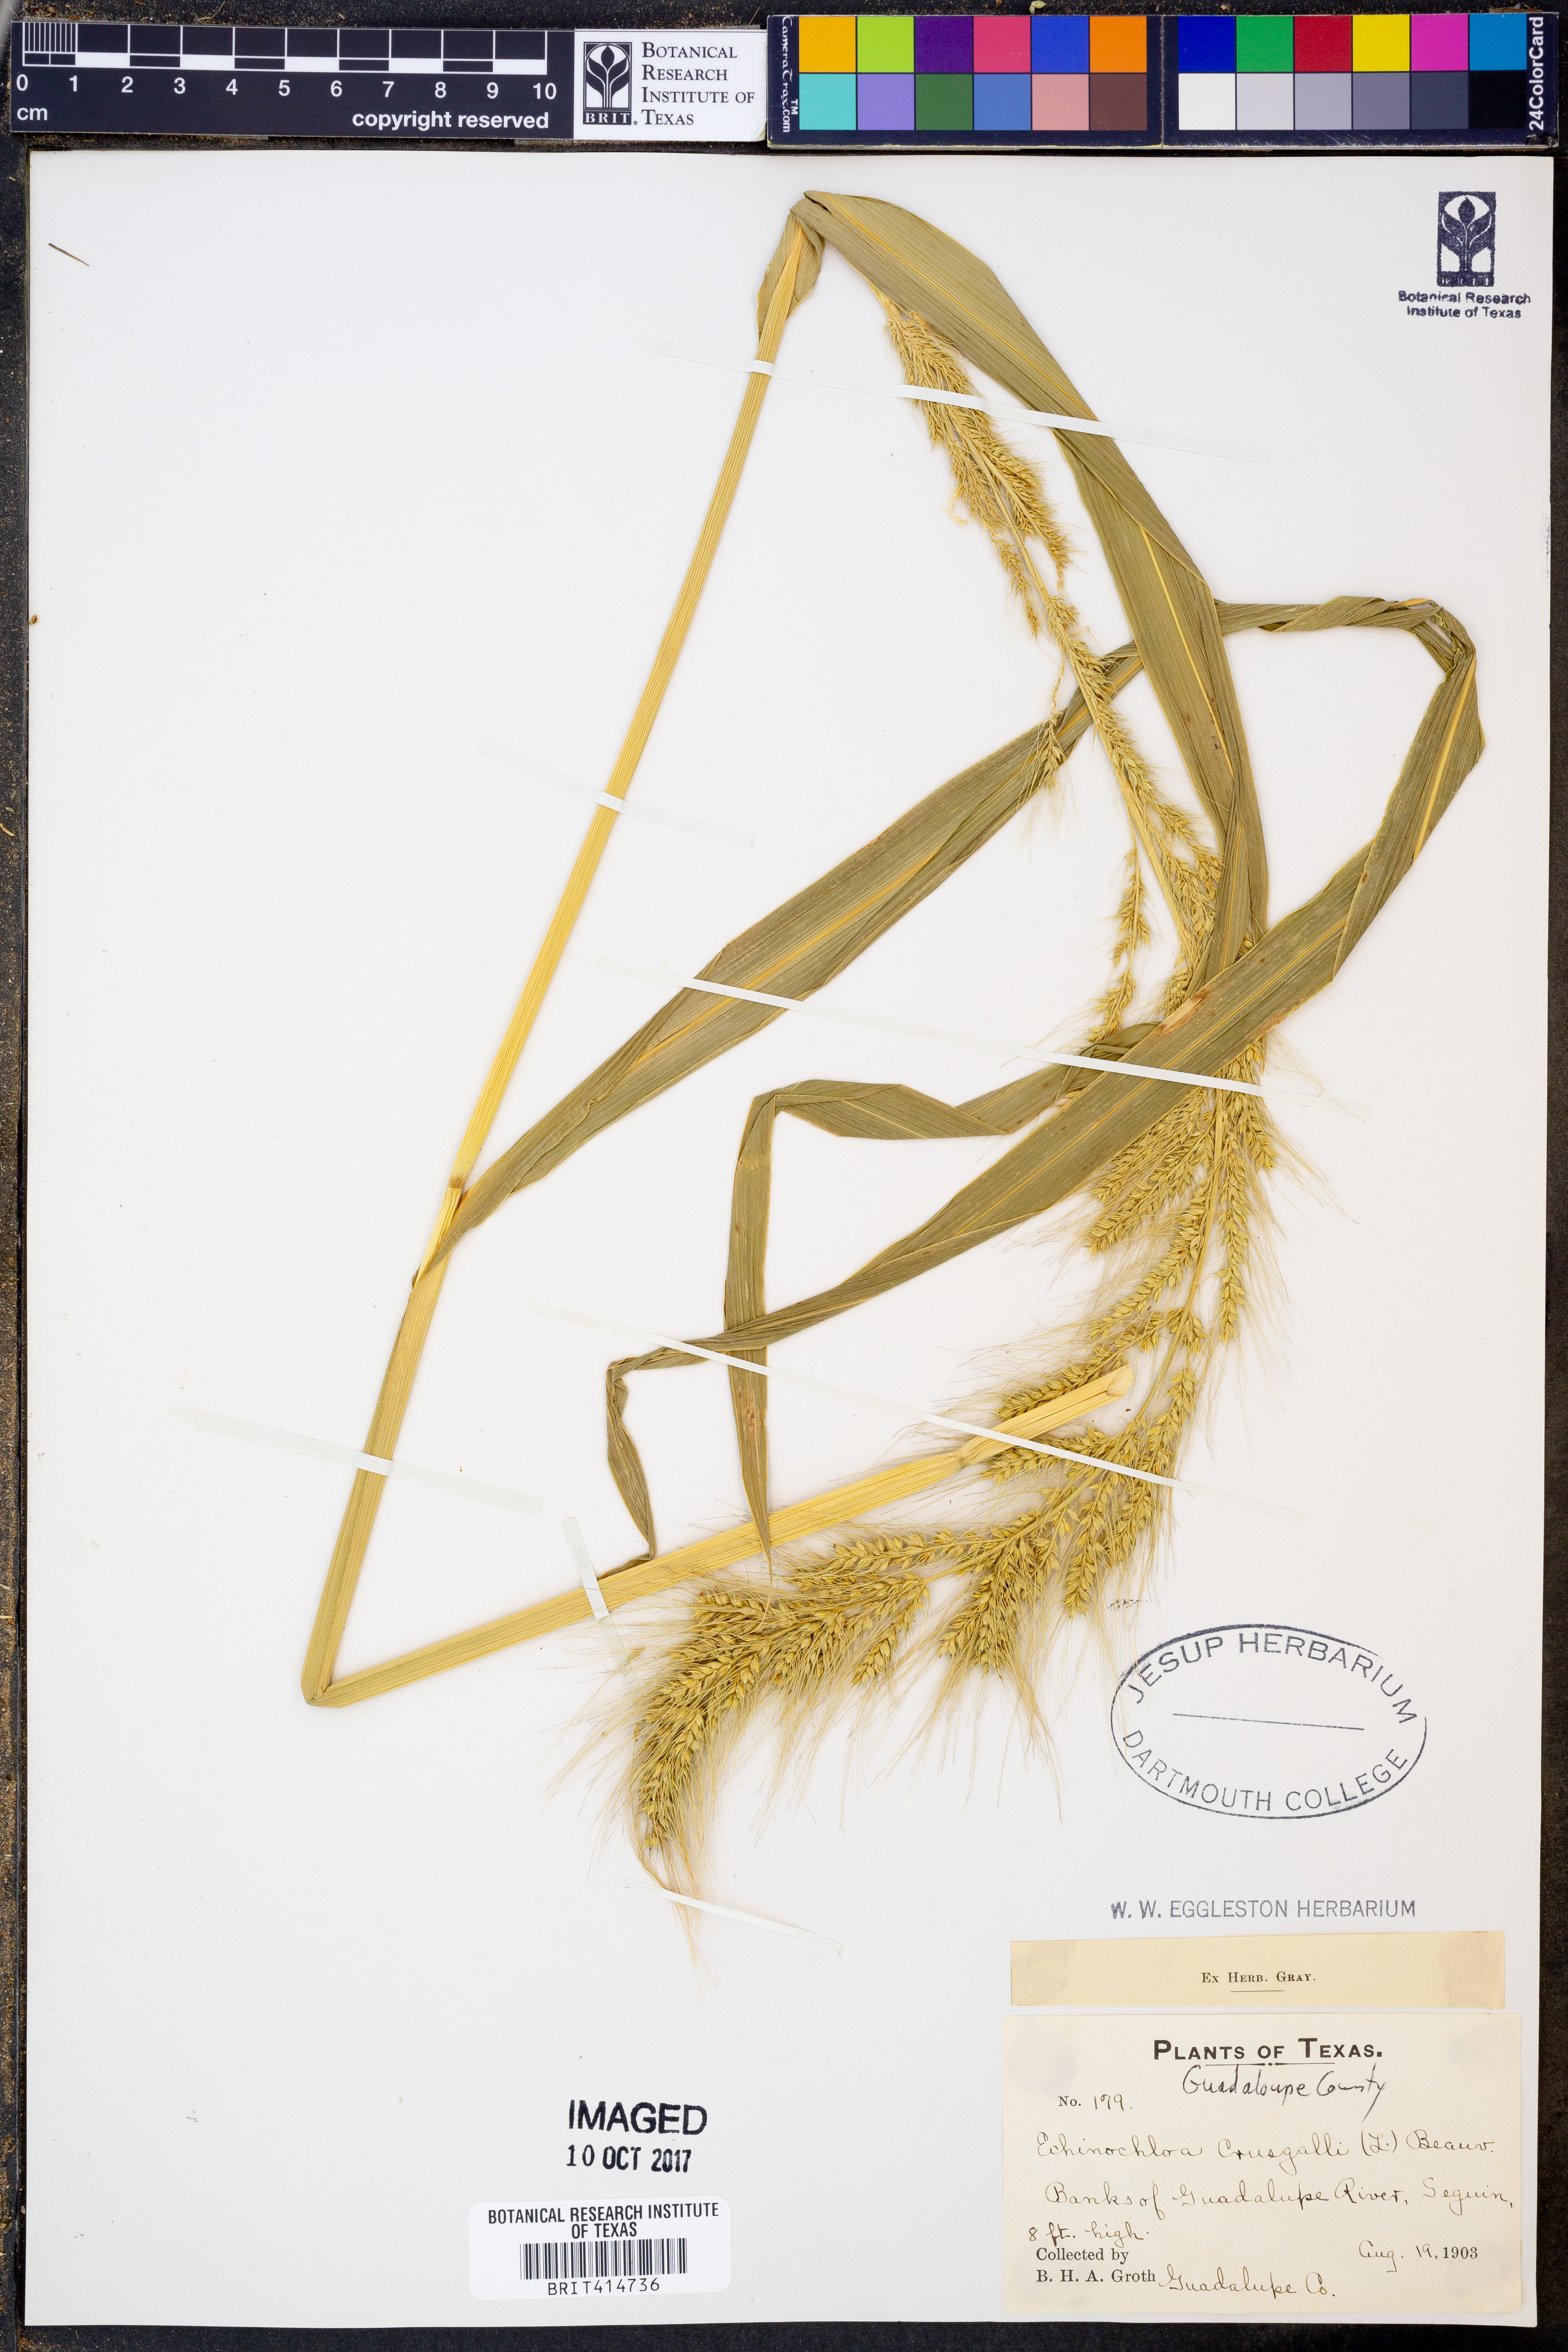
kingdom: Plantae
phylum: Tracheophyta
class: Liliopsida
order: Poales
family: Poaceae
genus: Echinochloa
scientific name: Echinochloa
